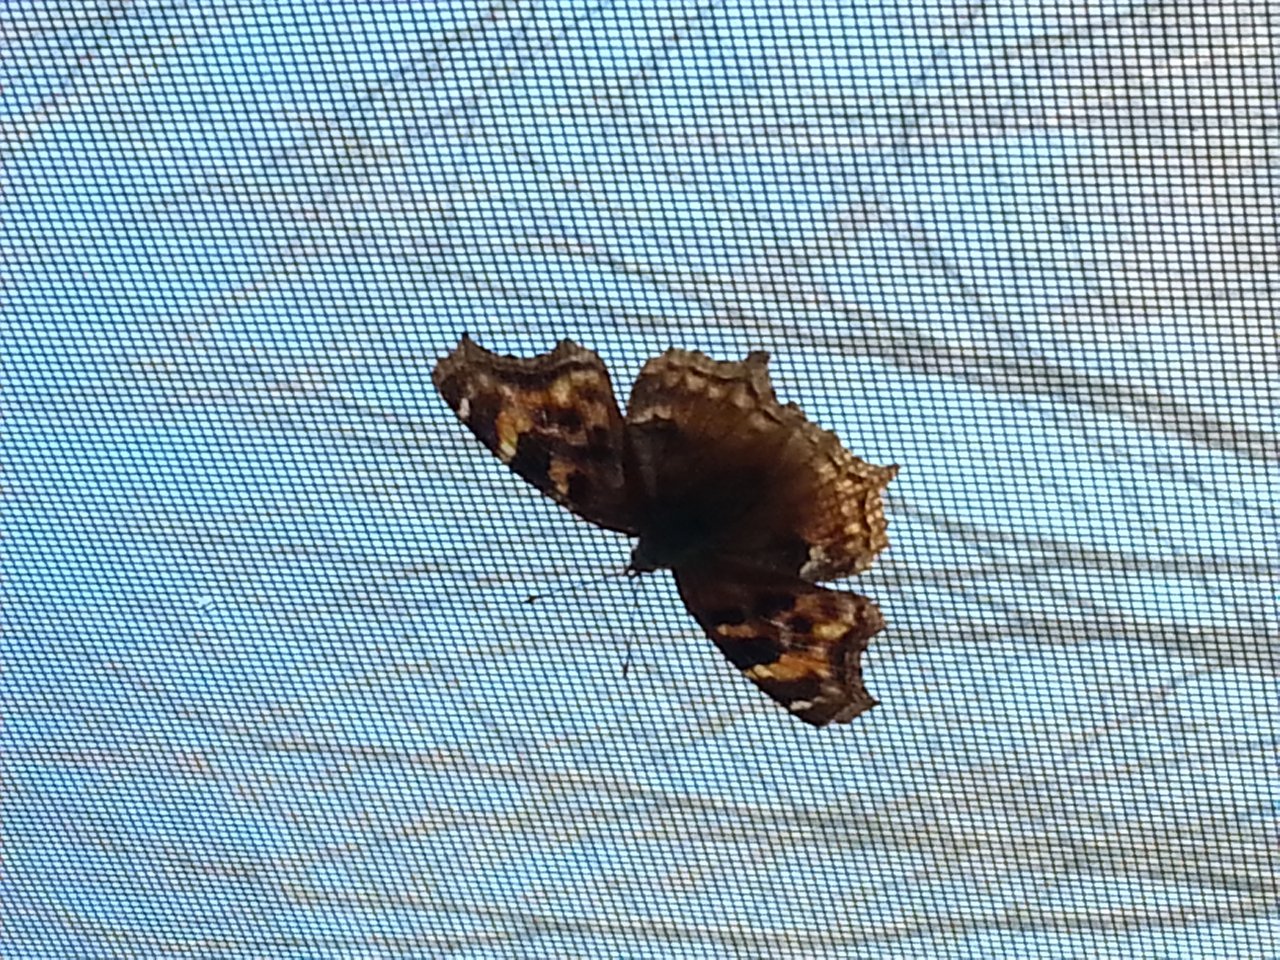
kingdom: Animalia
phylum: Arthropoda
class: Insecta
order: Lepidoptera
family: Nymphalidae
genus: Polygonia
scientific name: Polygonia vaualbum
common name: Compton Tortoiseshell
